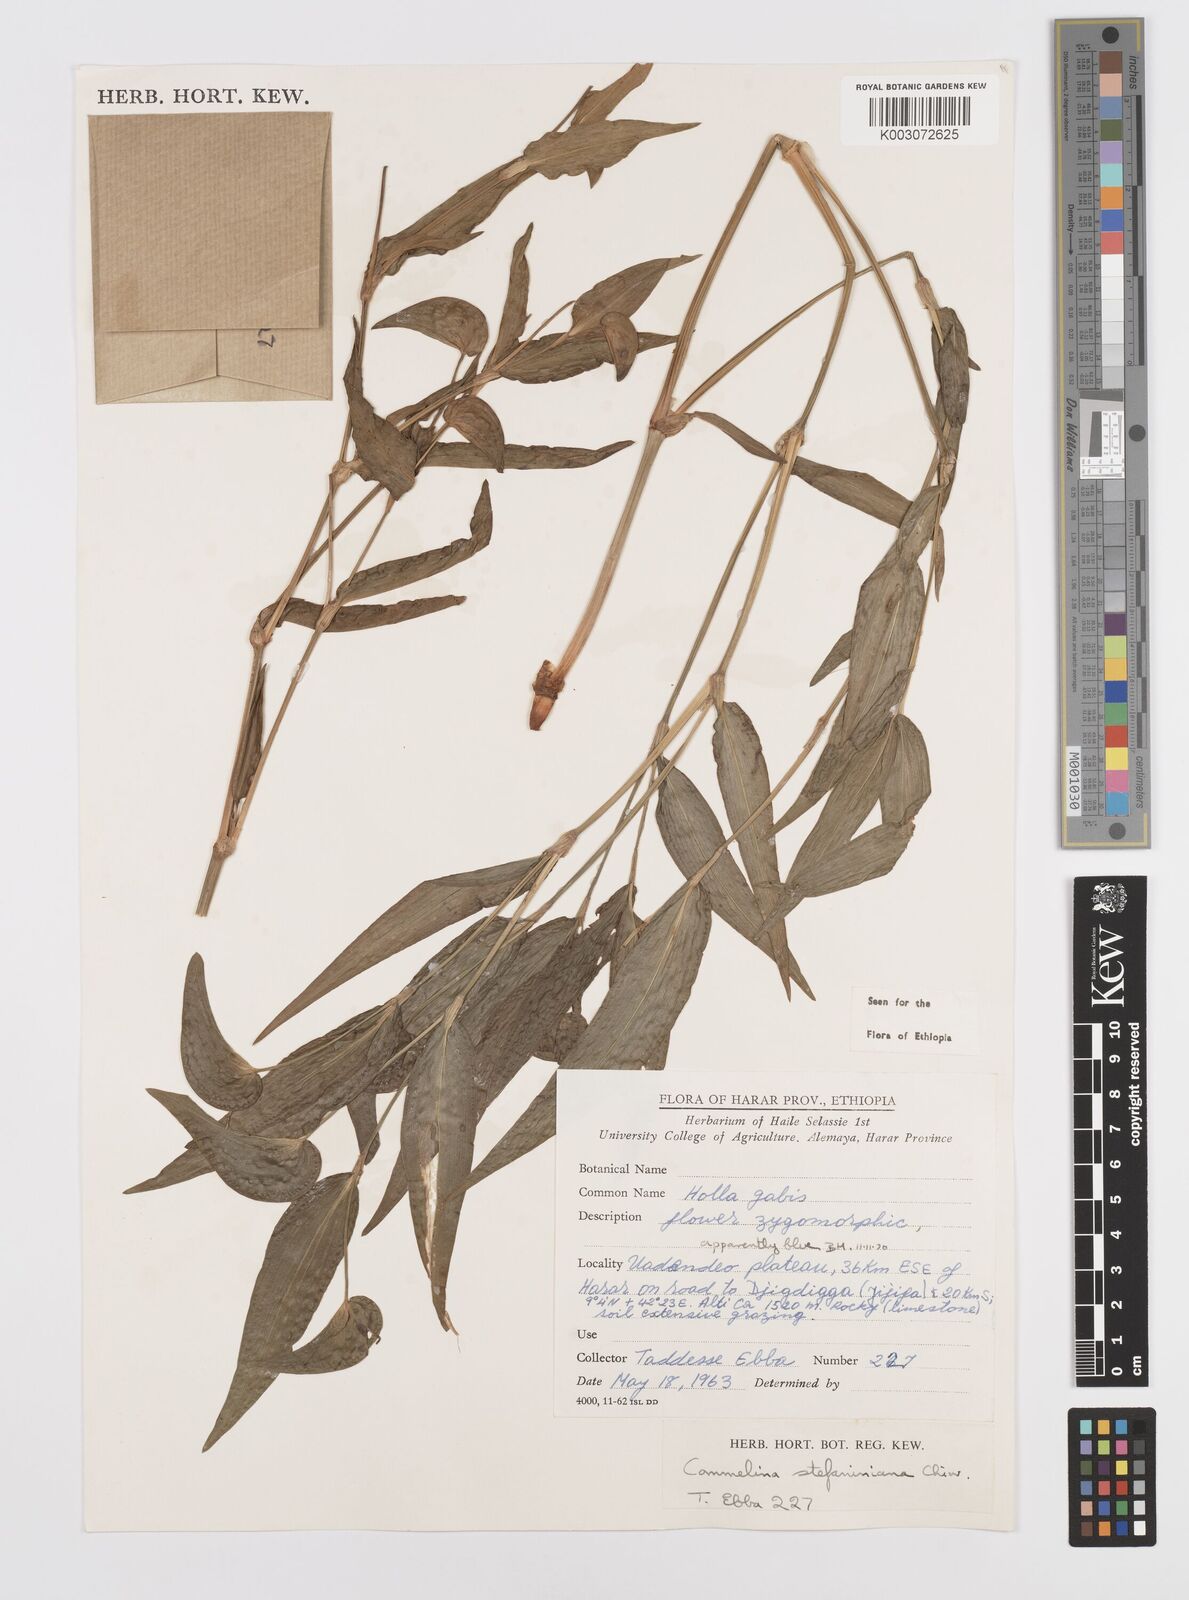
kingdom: Plantae
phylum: Tracheophyta
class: Liliopsida
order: Commelinales
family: Commelinaceae
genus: Commelina
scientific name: Commelina stefaniniana
